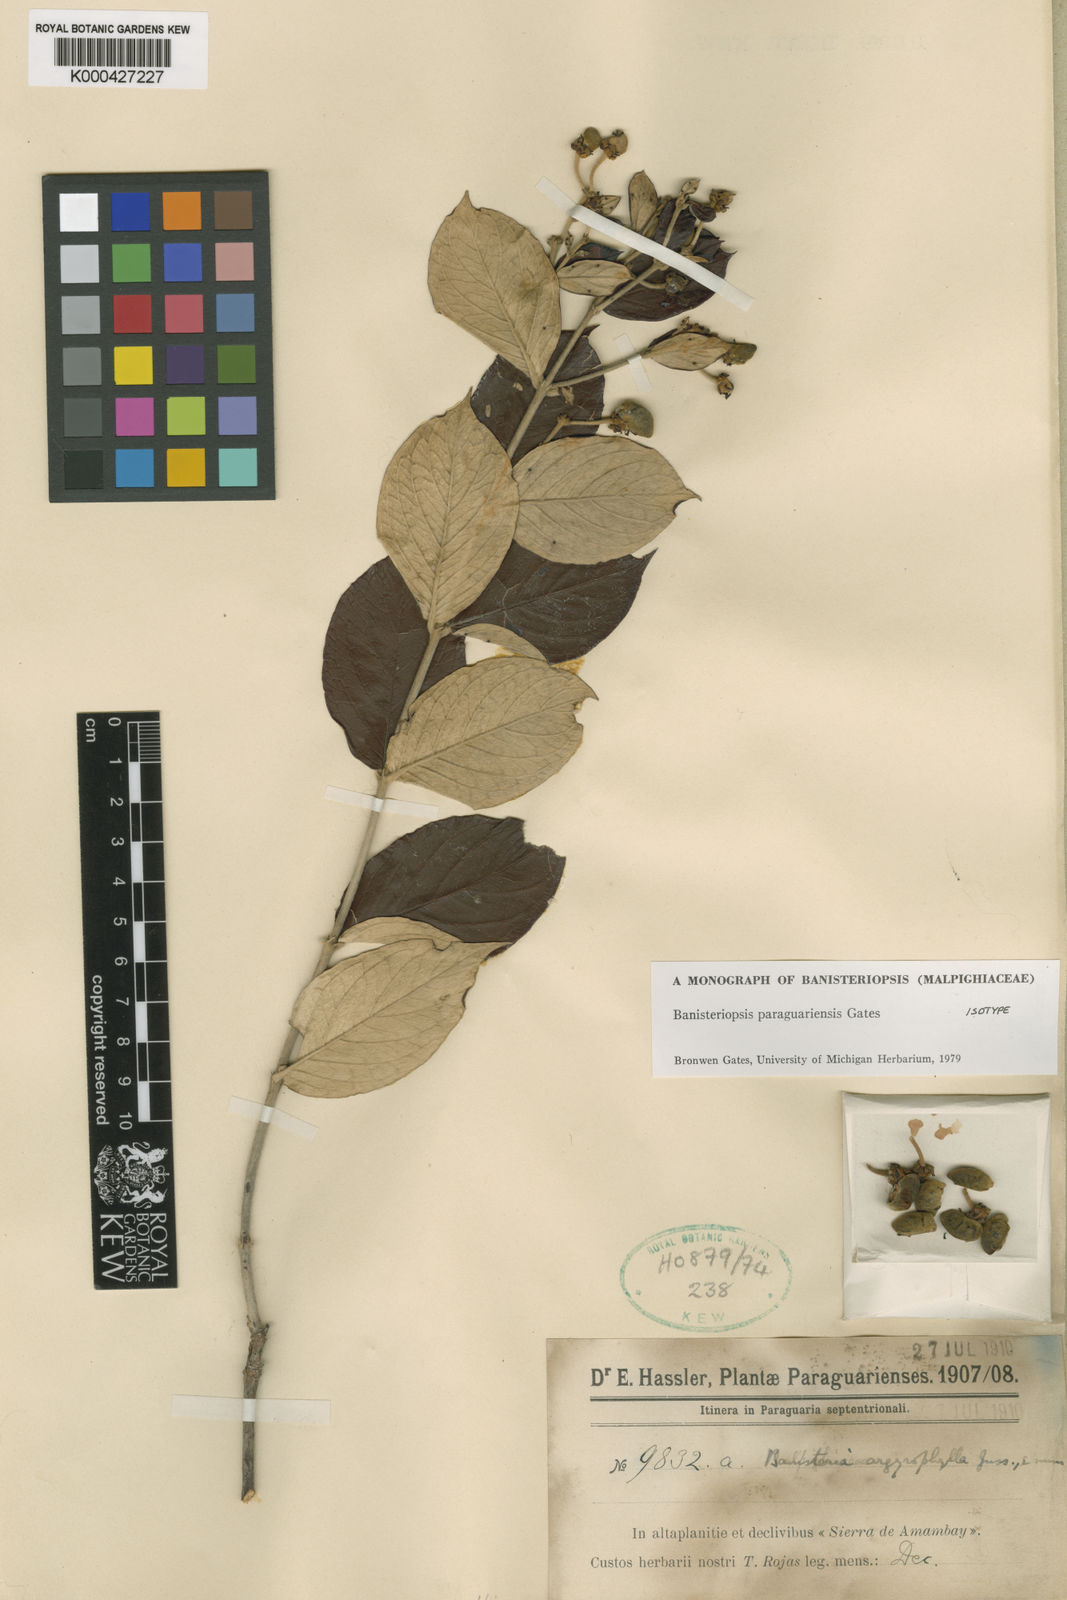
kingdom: Plantae
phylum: Tracheophyta
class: Magnoliopsida
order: Malpighiales
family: Malpighiaceae
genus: Banisteriopsis
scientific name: Banisteriopsis paraguariensis
